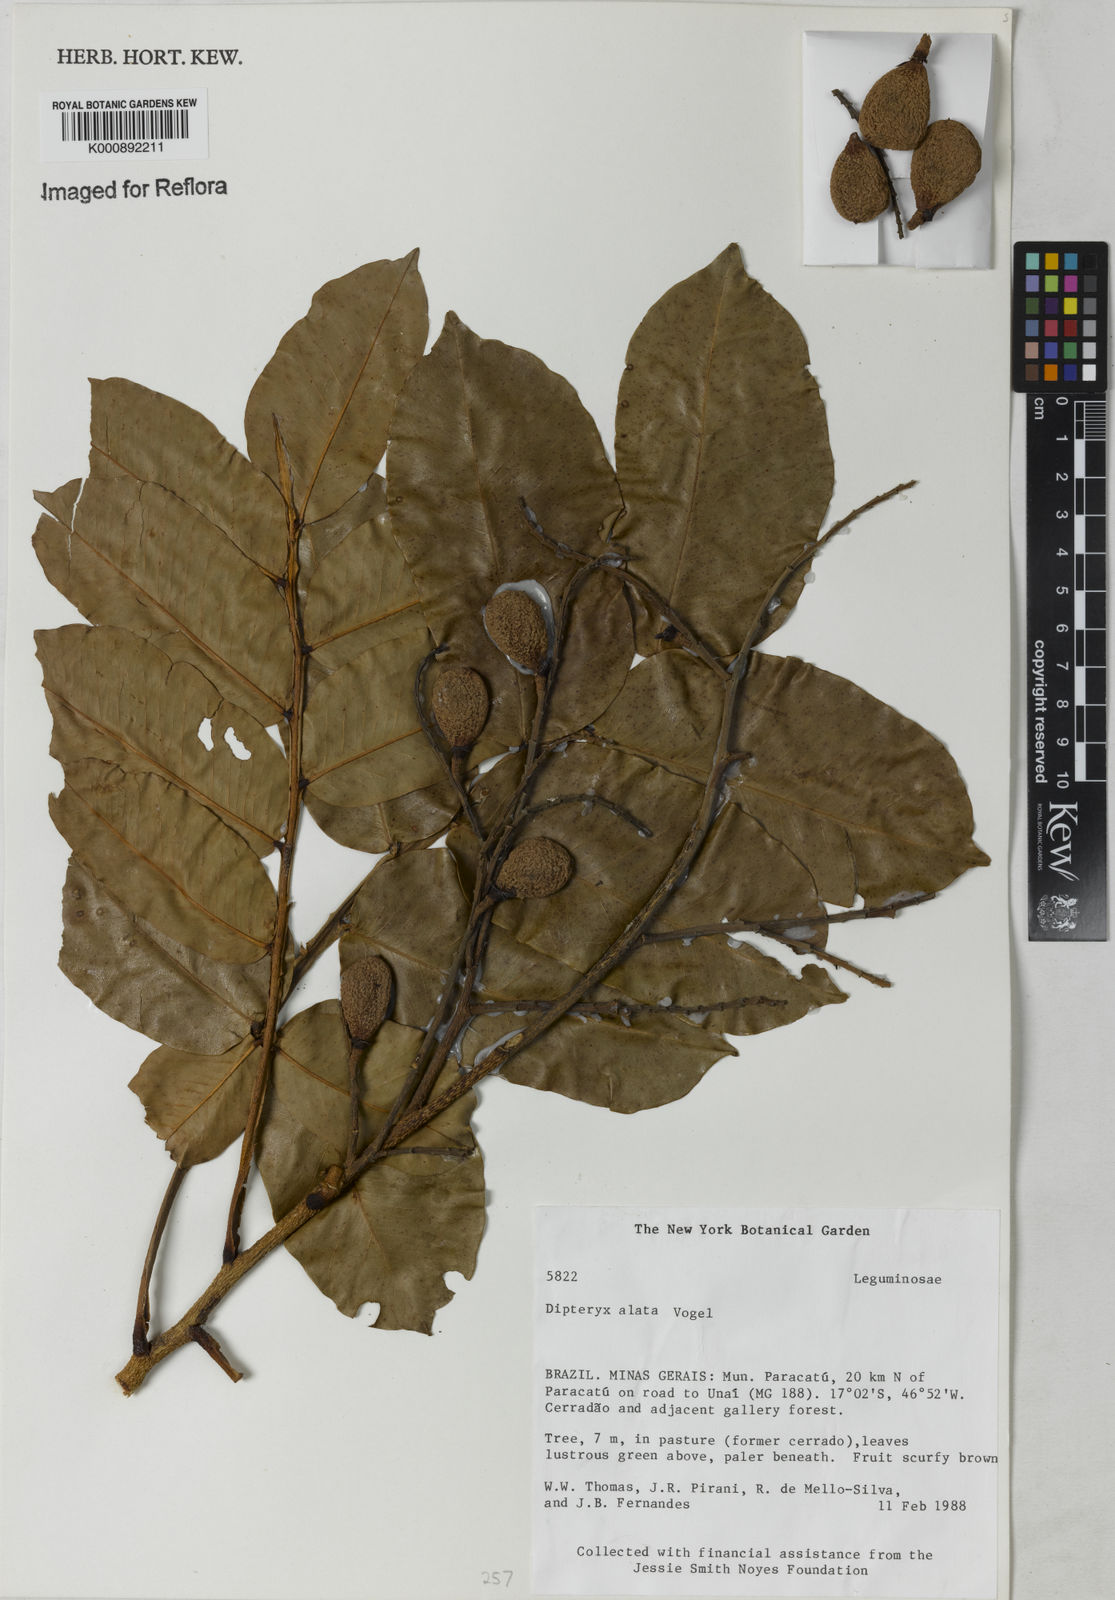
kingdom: Plantae
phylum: Tracheophyta
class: Magnoliopsida
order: Fabales
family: Fabaceae
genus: Dipteryx
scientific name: Dipteryx alata
